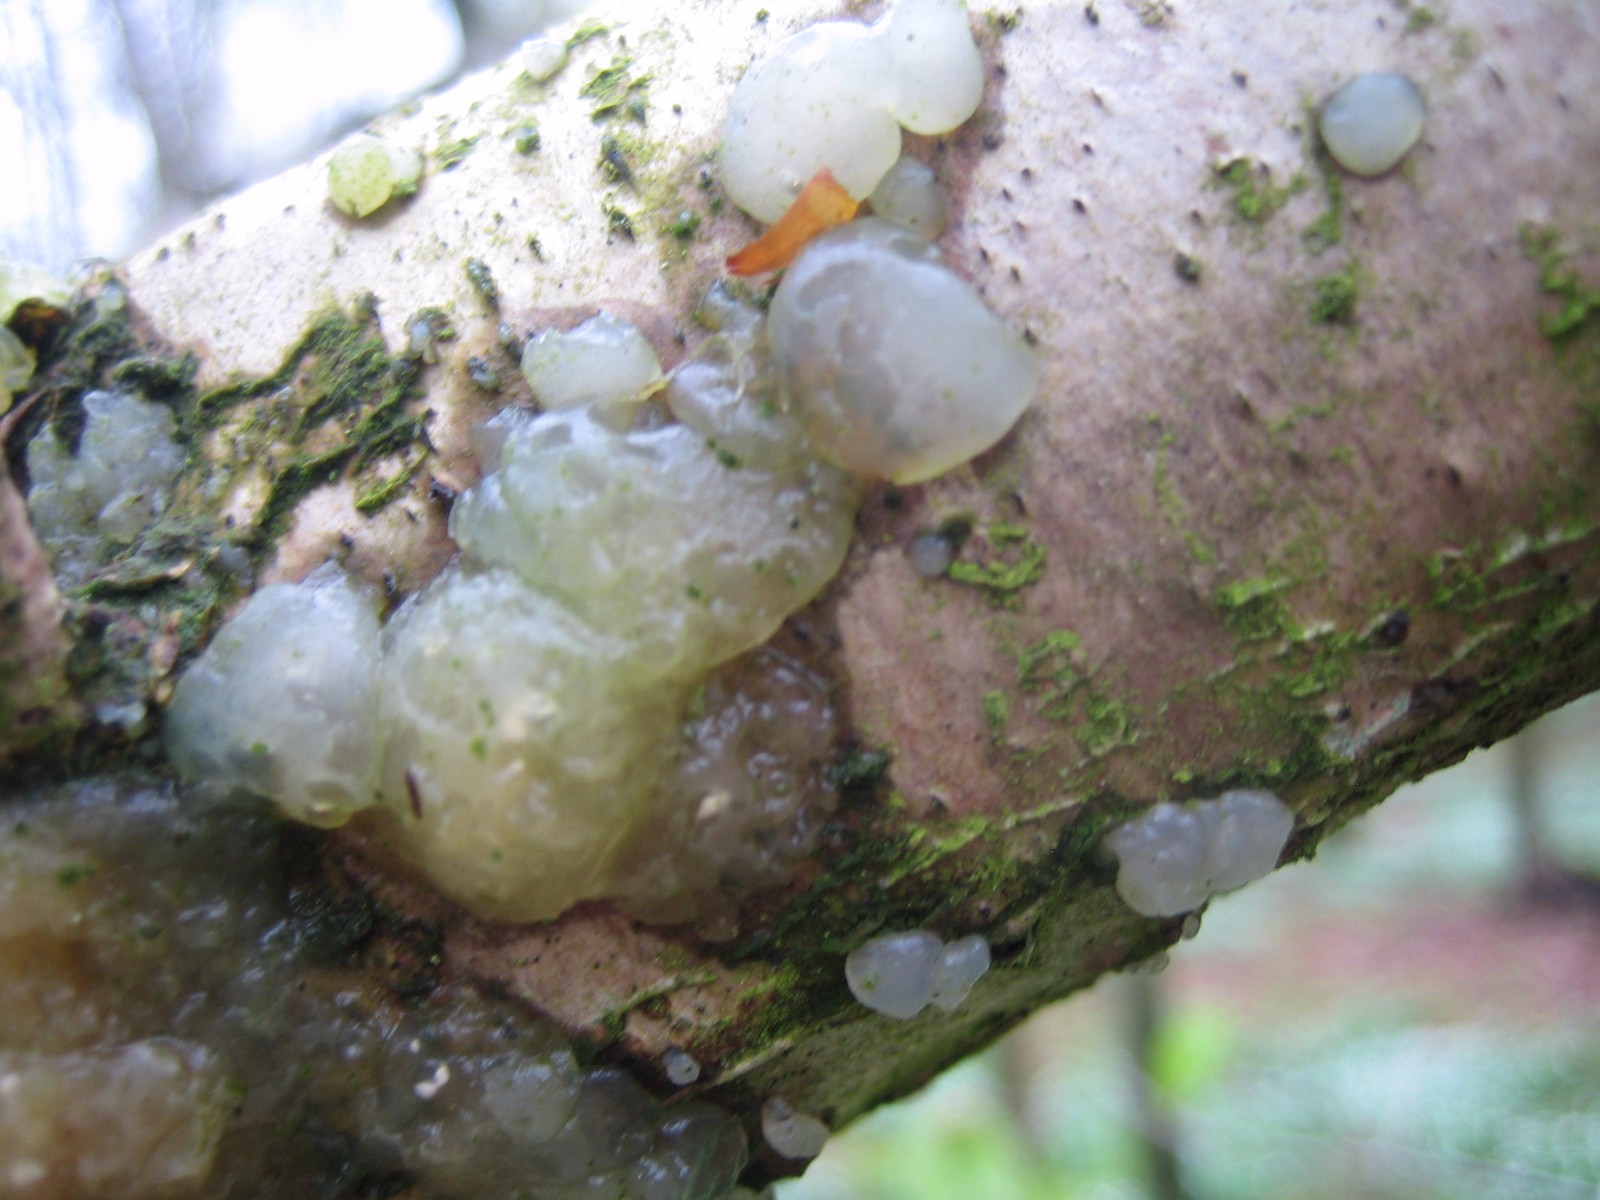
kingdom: Fungi
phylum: Basidiomycota
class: Agaricomycetes
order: Auriculariales
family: Hyaloriaceae
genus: Myxarium
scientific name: Myxarium nucleatum
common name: klar bævretop
